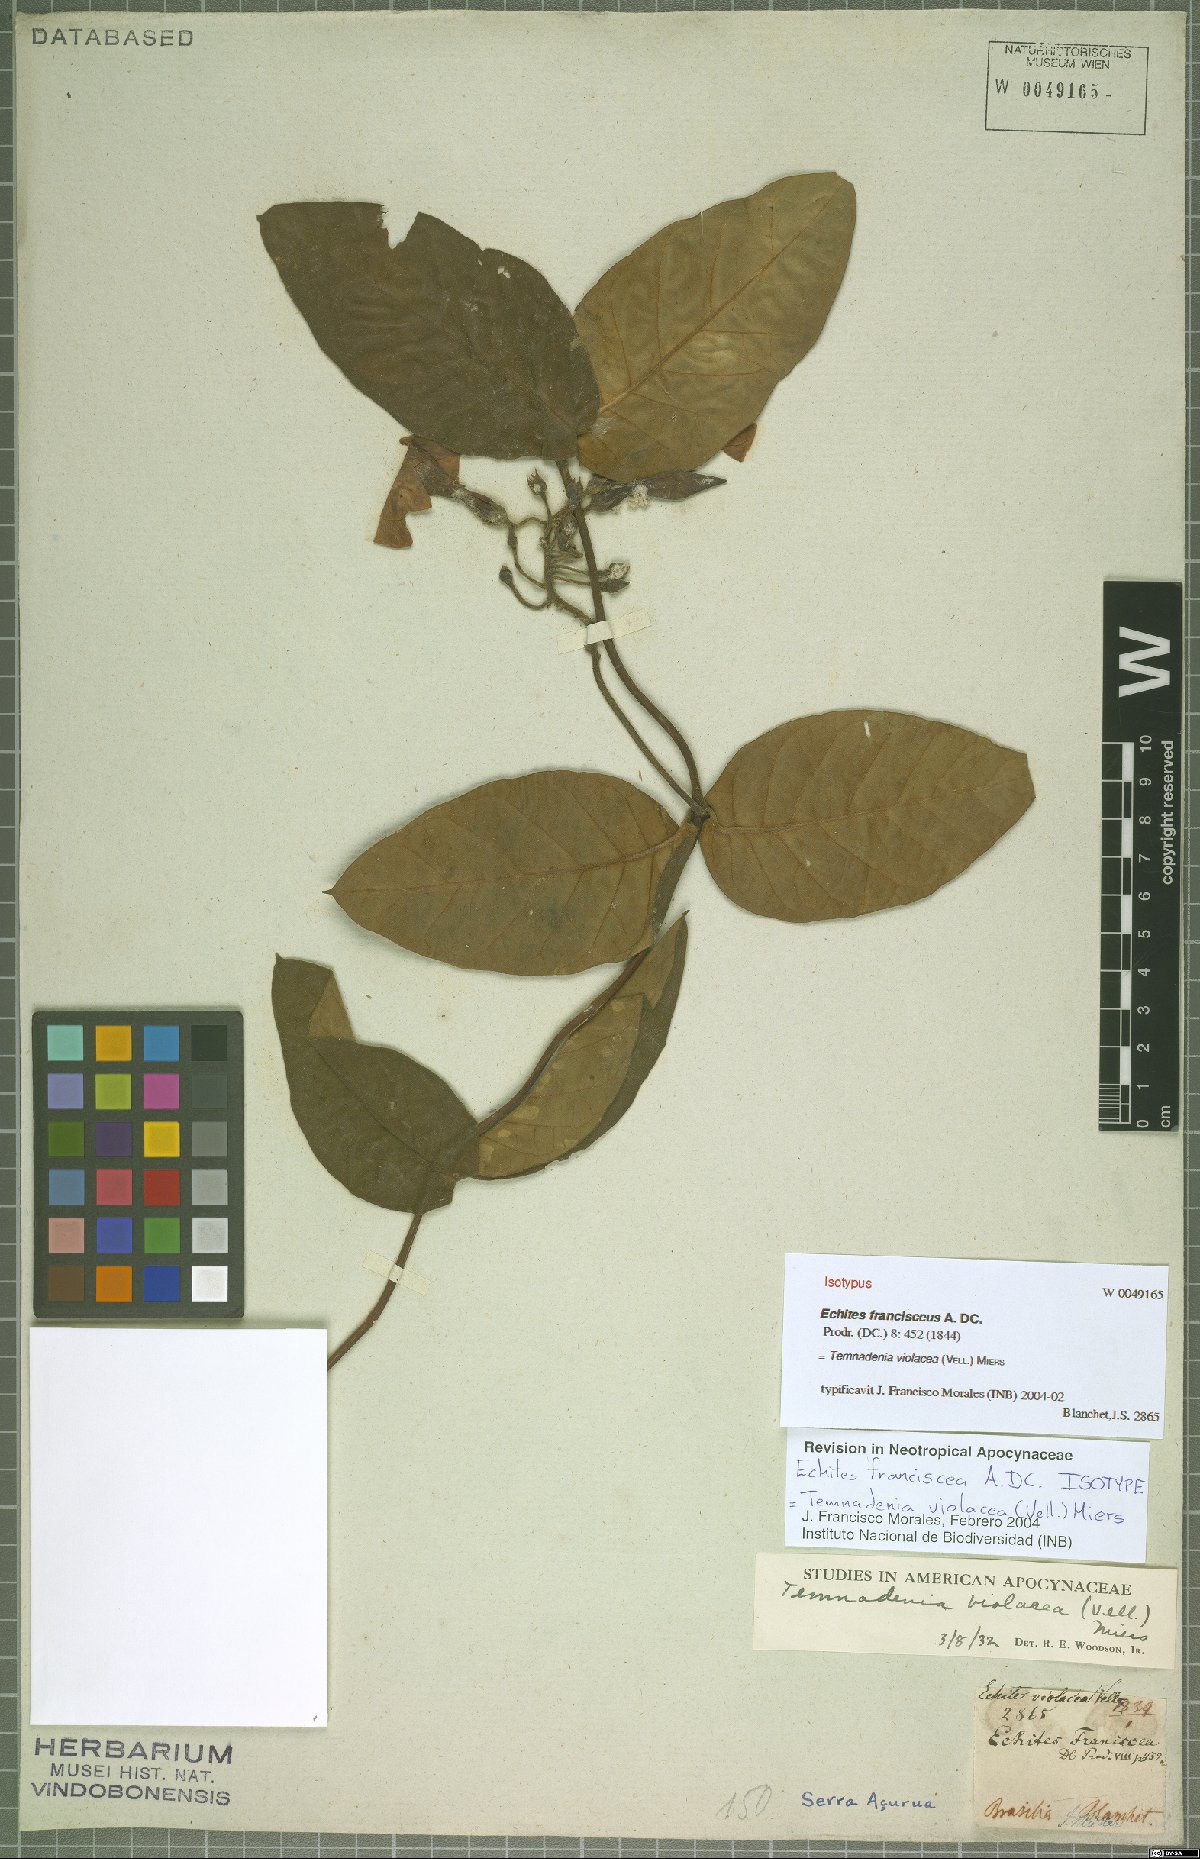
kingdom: Plantae
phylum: Tracheophyta
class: Magnoliopsida
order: Gentianales
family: Apocynaceae
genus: Temnadenia
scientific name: Temnadenia violacea
